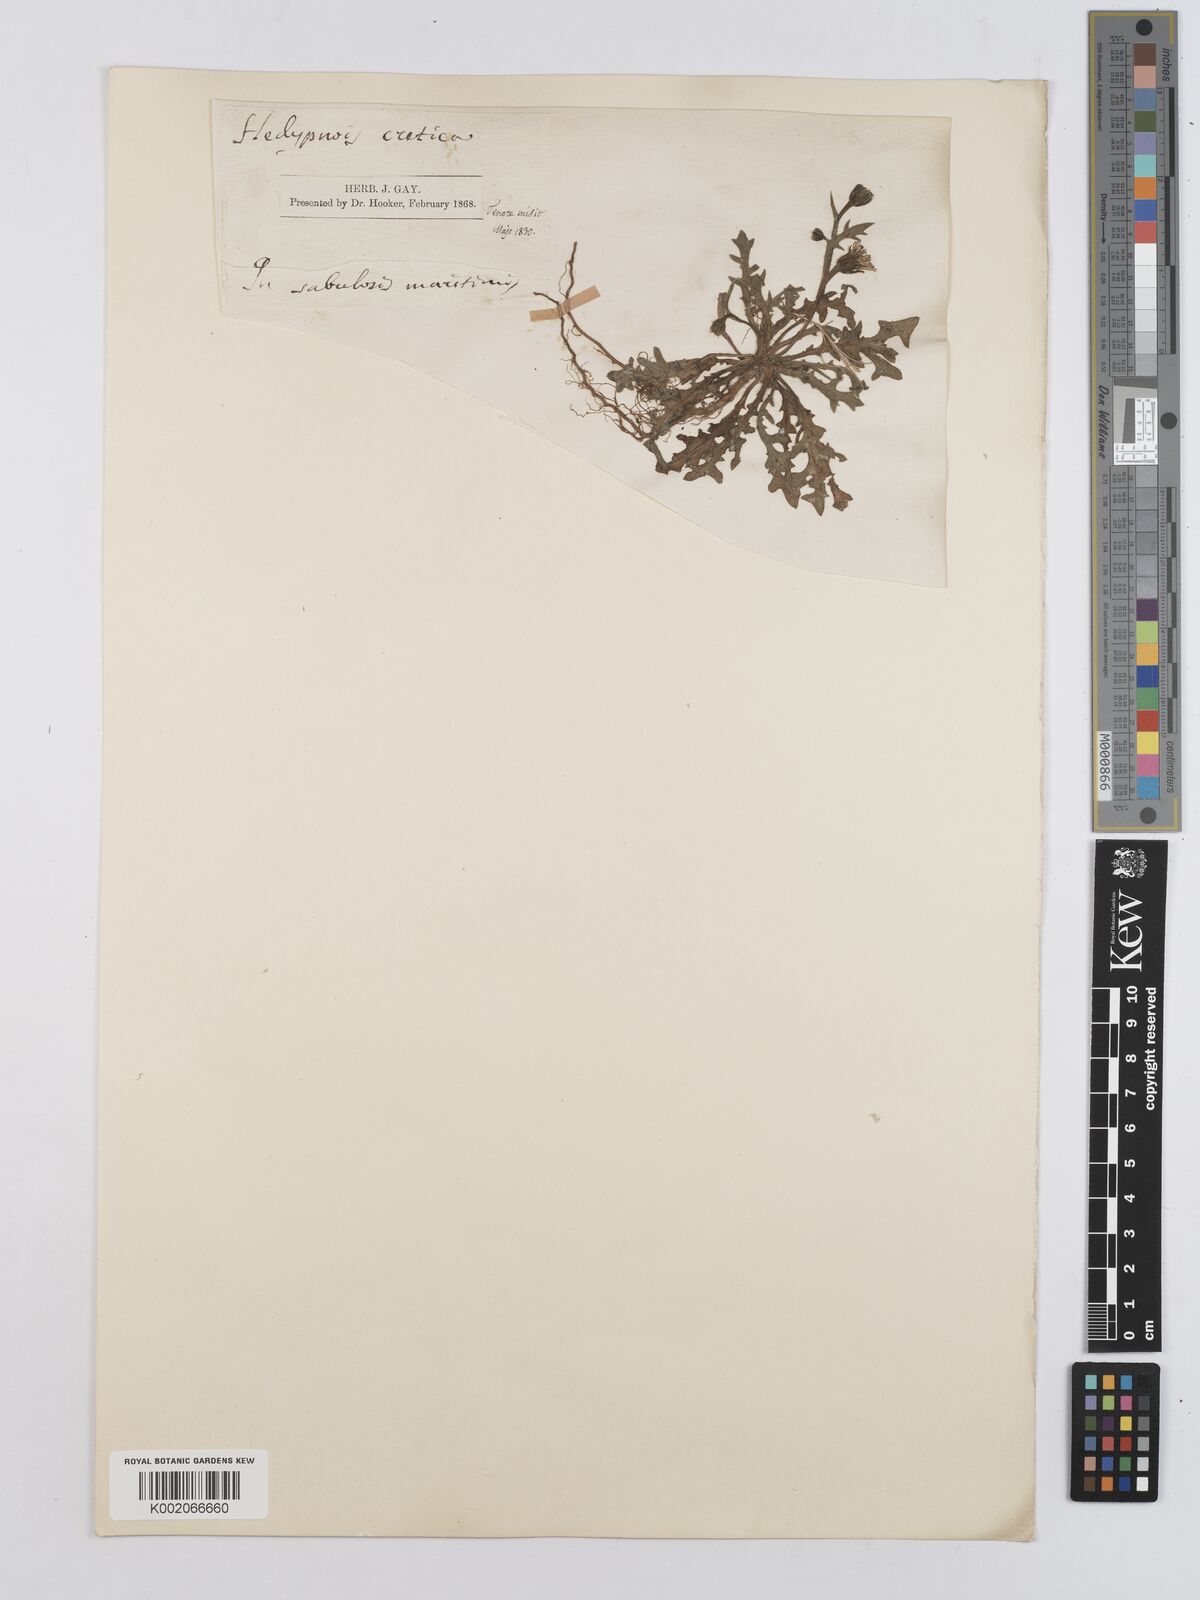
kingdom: Plantae
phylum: Tracheophyta
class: Magnoliopsida
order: Asterales
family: Asteraceae
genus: Hedypnois
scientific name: Hedypnois rhagadioloides
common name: Cretan weed
